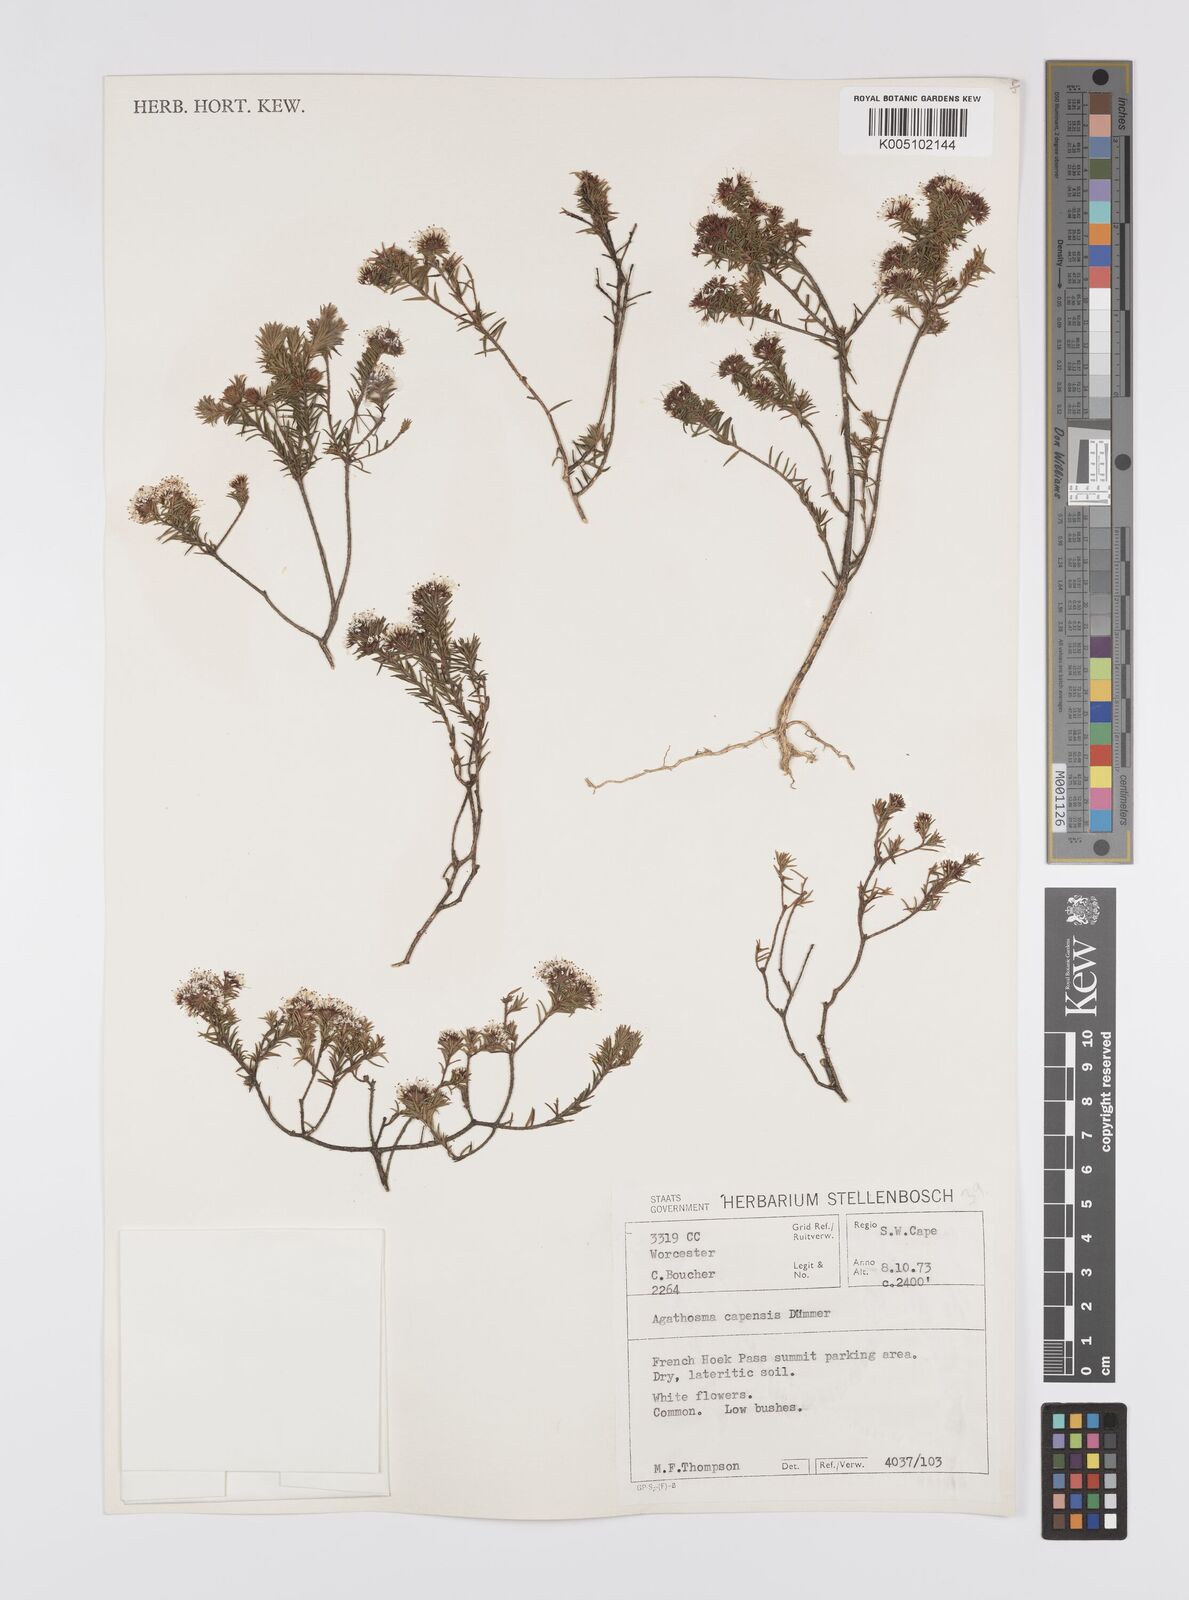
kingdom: Plantae
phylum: Tracheophyta
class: Magnoliopsida
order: Sapindales
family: Rutaceae
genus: Agathosma
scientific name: Agathosma capensis
